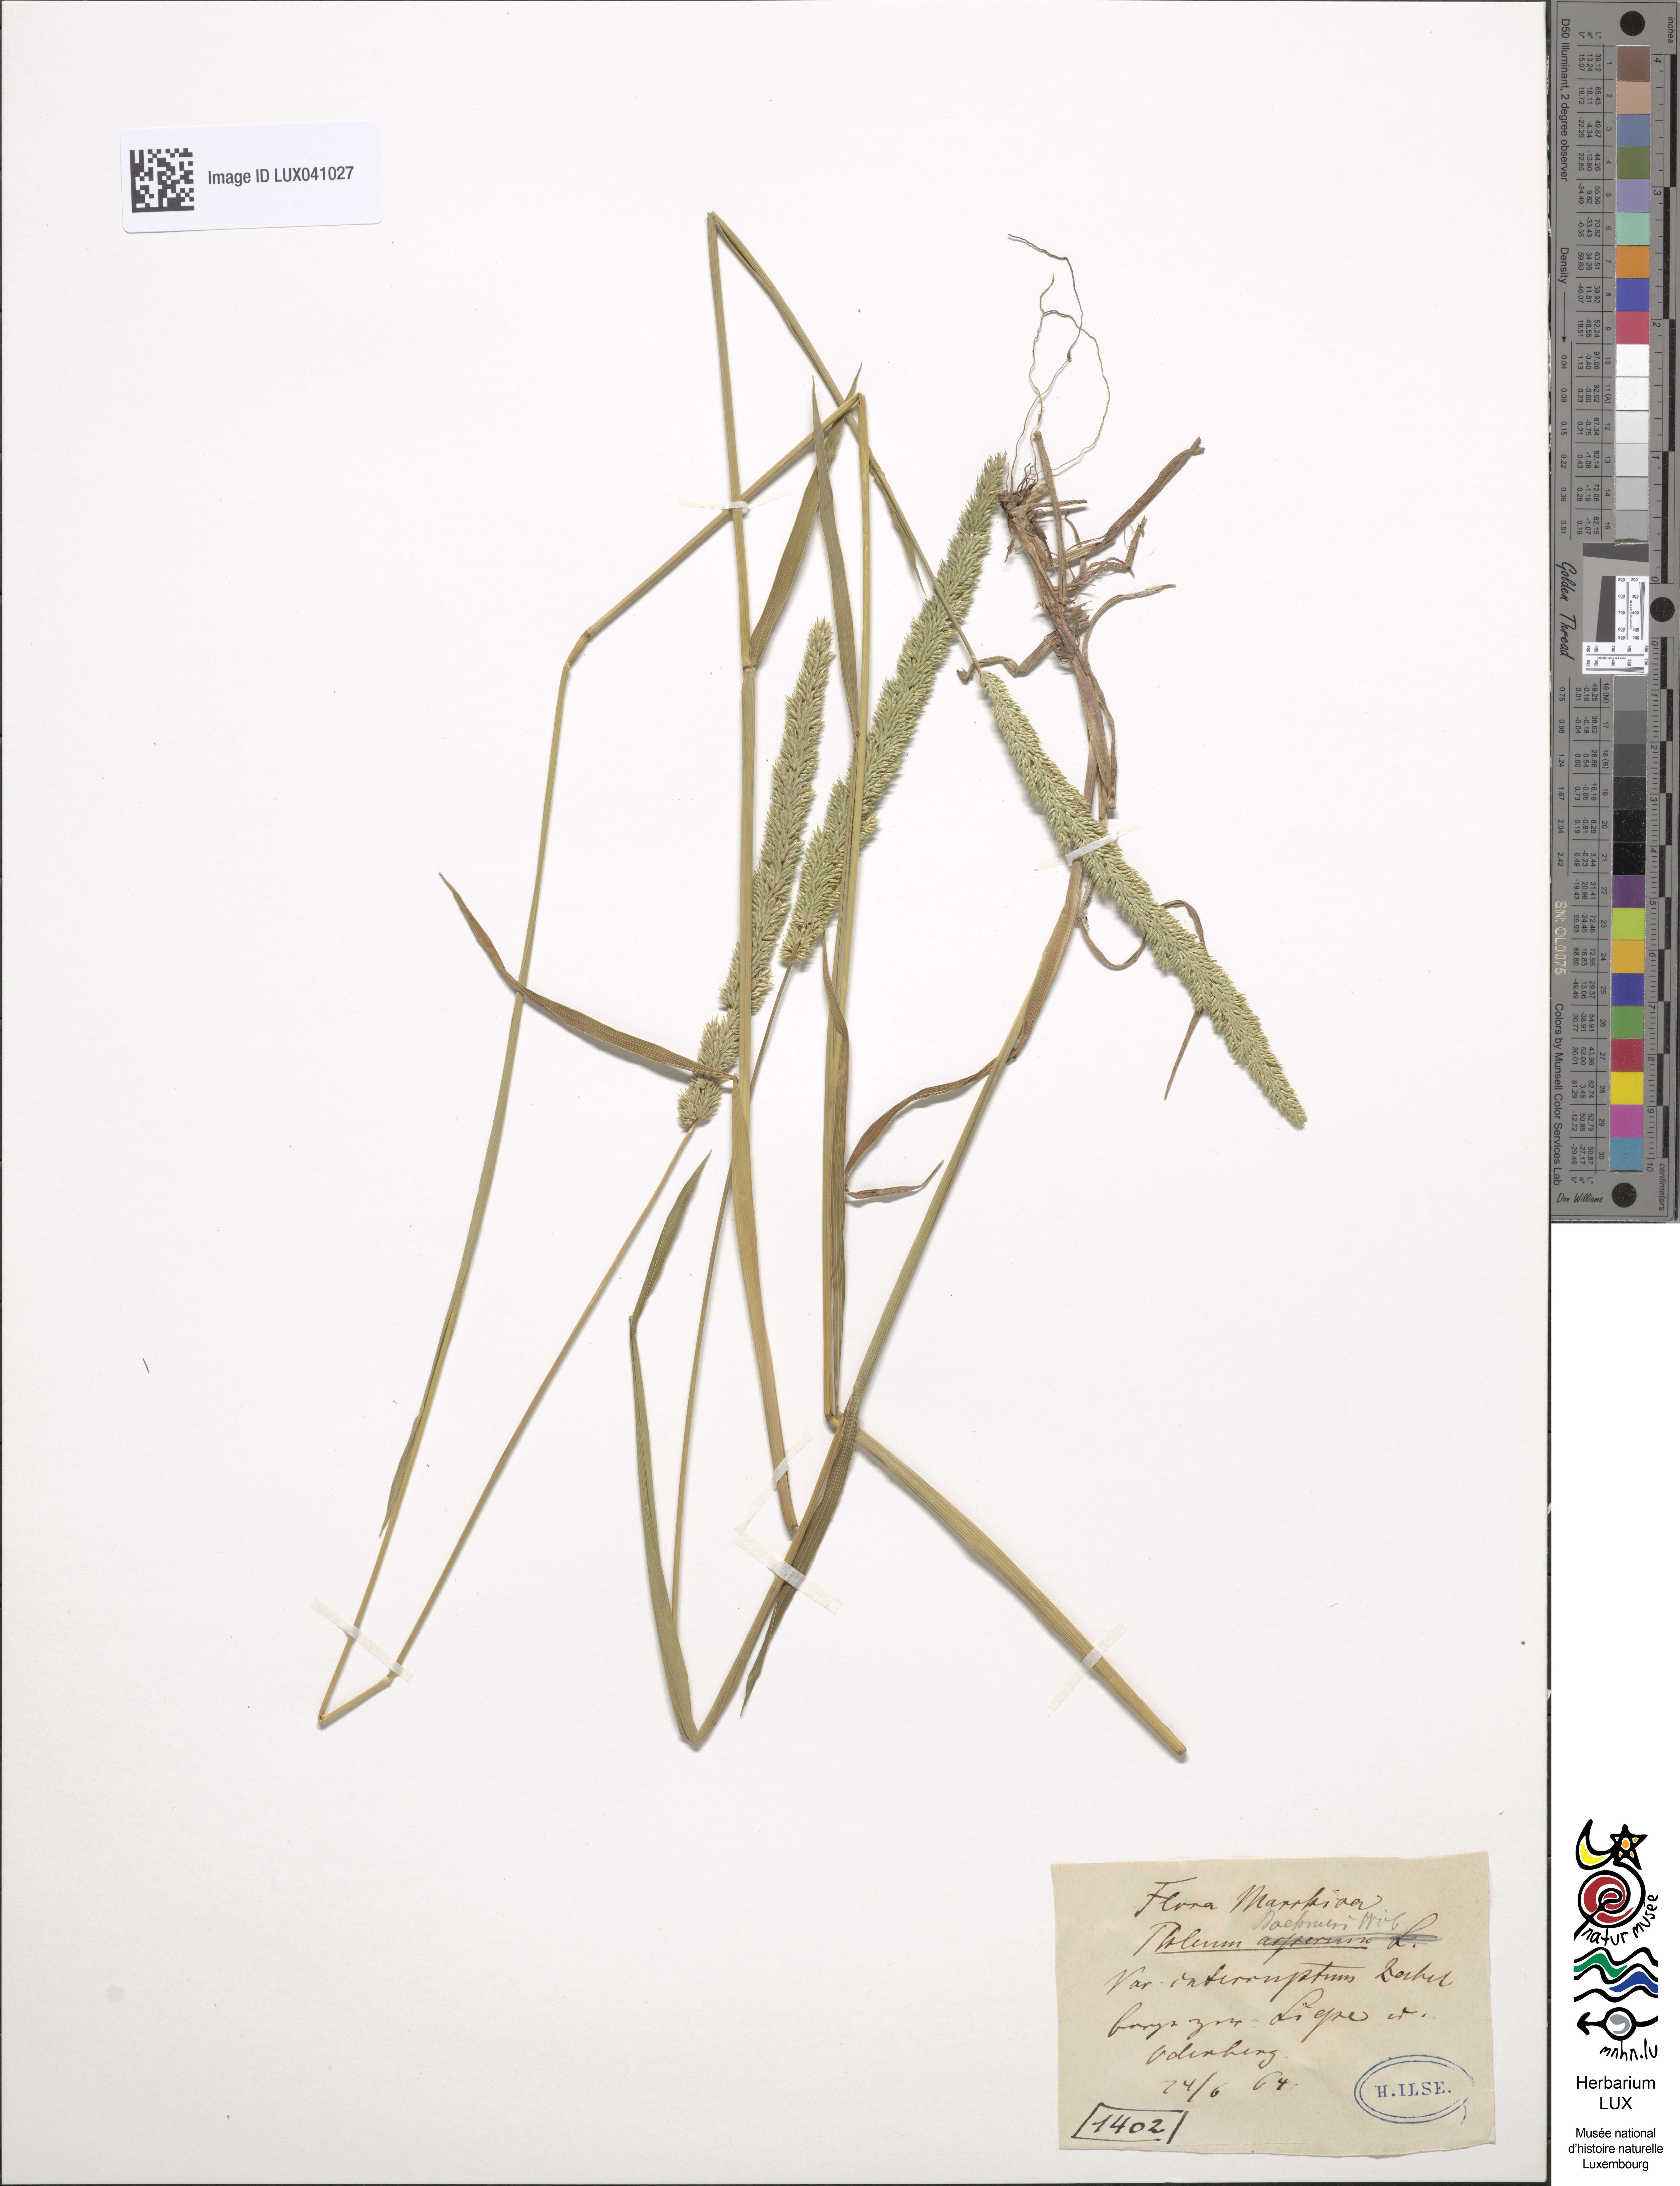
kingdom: Plantae
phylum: Tracheophyta
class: Liliopsida
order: Poales
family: Poaceae
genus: Phleum
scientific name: Phleum phleoides
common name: Purple-stem cat's-tail
